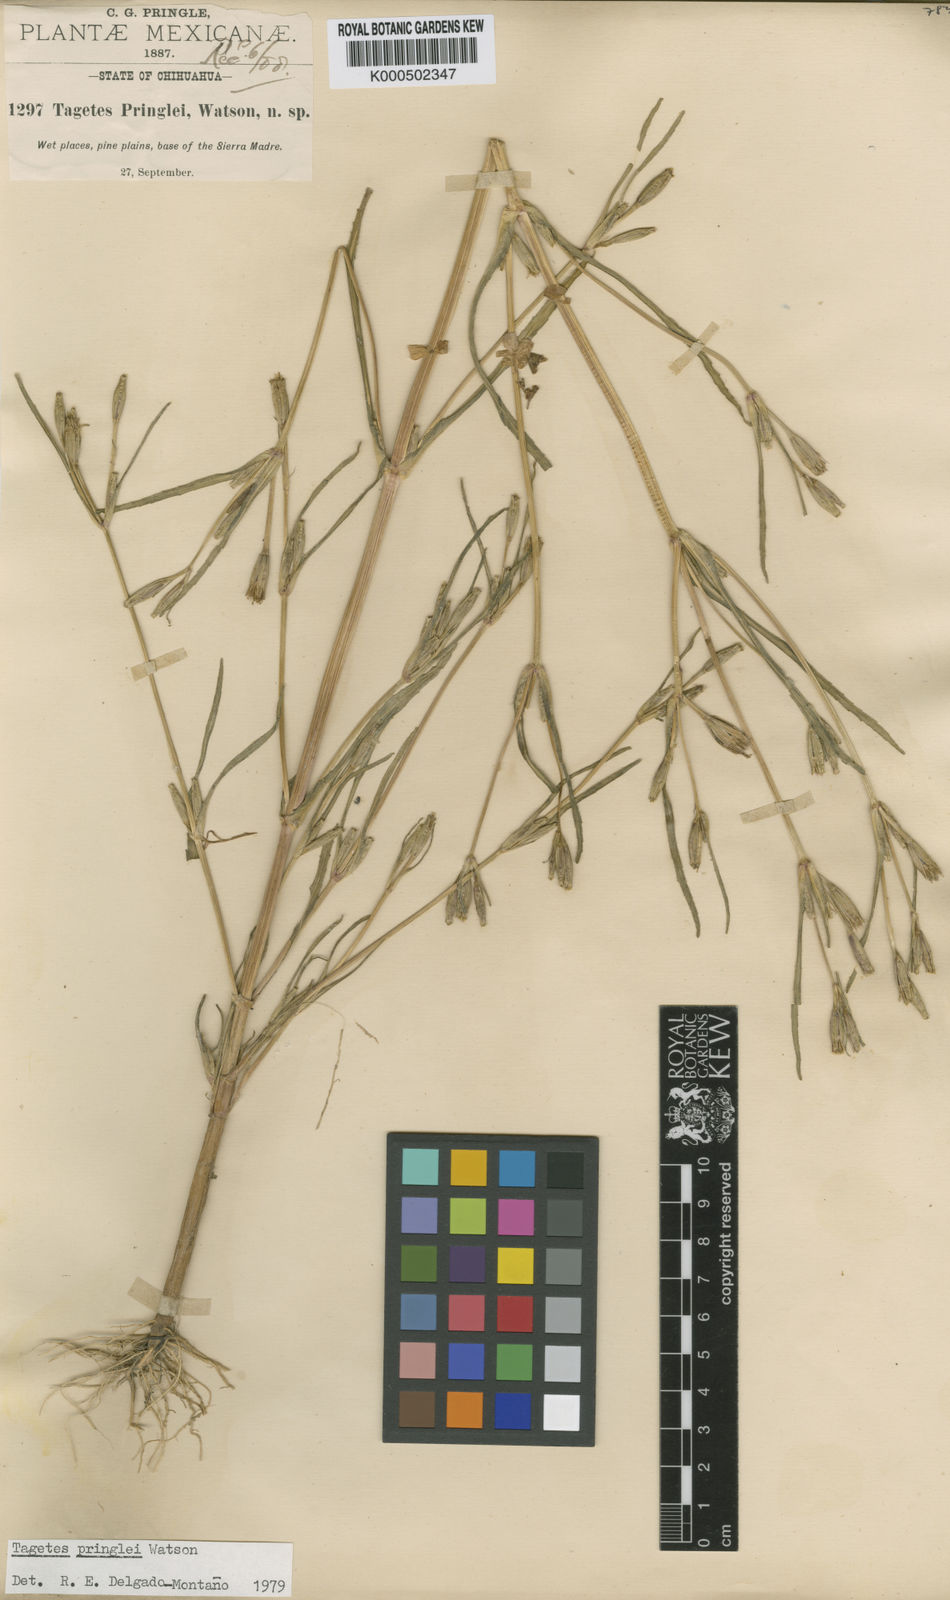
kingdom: Plantae
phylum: Tracheophyta
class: Magnoliopsida
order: Asterales
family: Asteraceae
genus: Tagetes
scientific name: Tagetes pringlei
